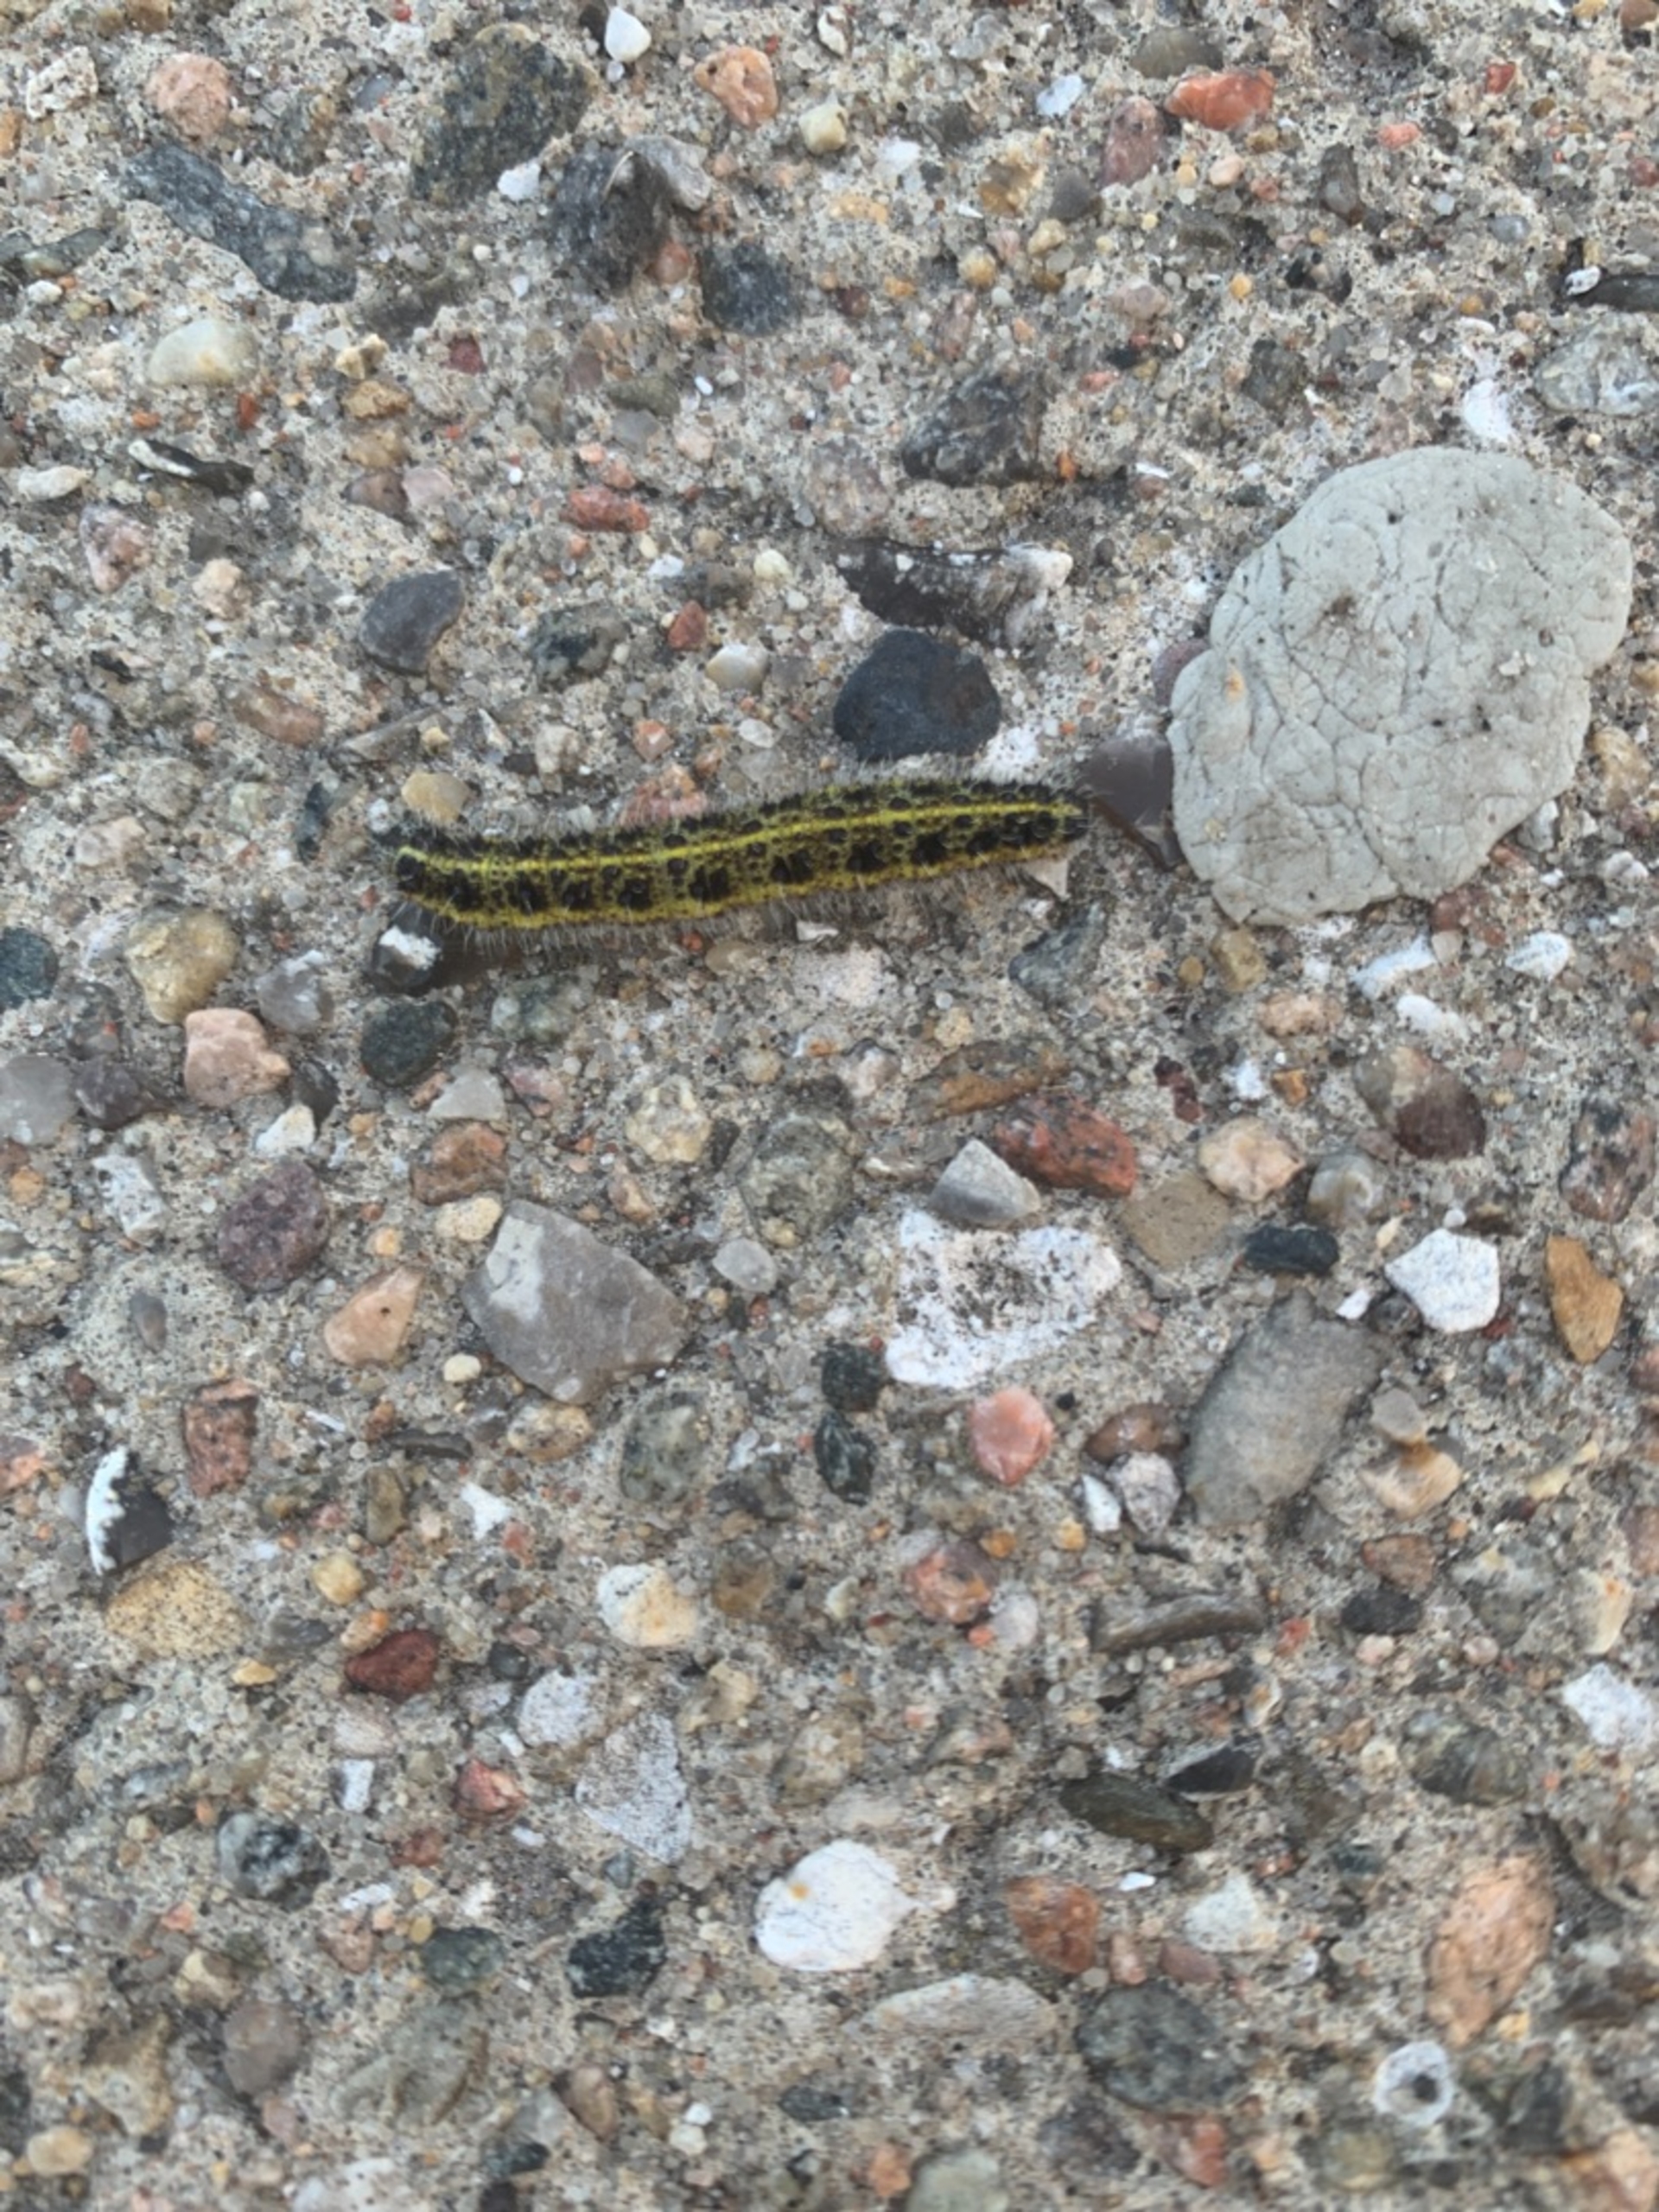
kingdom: Animalia
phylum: Arthropoda
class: Insecta
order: Lepidoptera
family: Pieridae
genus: Pieris
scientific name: Pieris brassicae
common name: Stor kålsommerfugl
